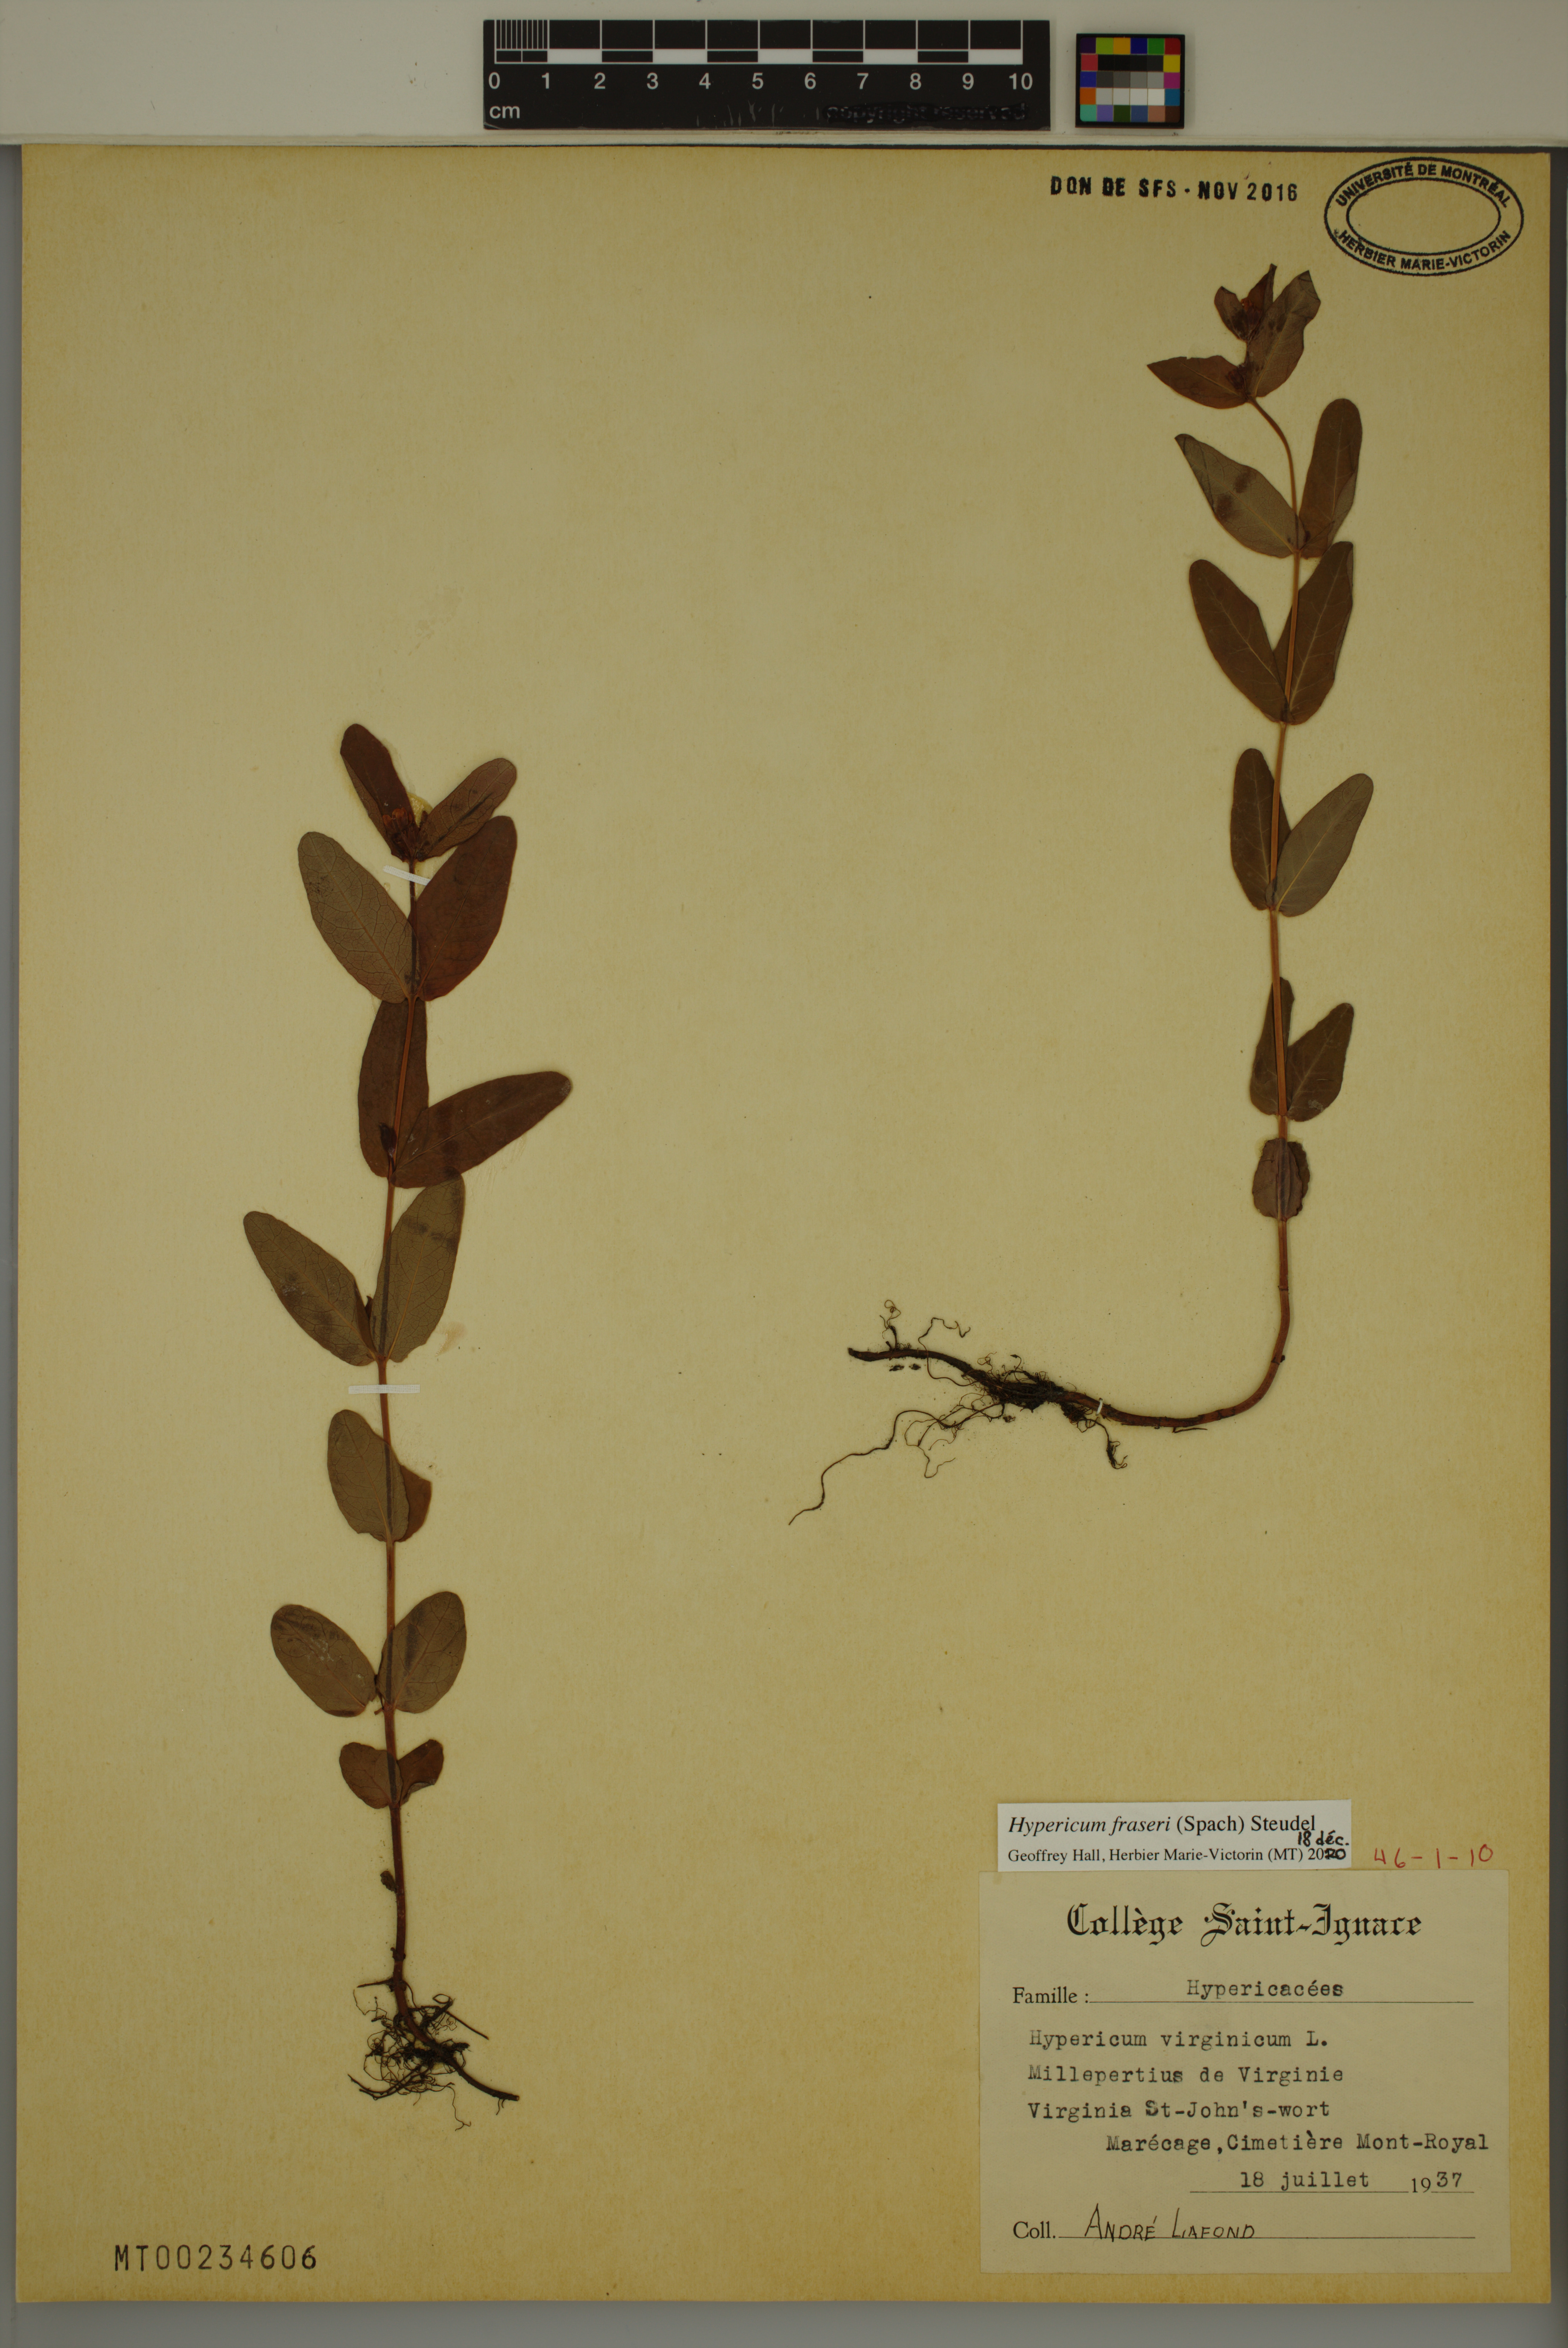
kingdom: Plantae
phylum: Tracheophyta
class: Magnoliopsida
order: Malpighiales
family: Hypericaceae
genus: Triadenum
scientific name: Triadenum fraseri
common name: Fraser's marsh st. johnswort
